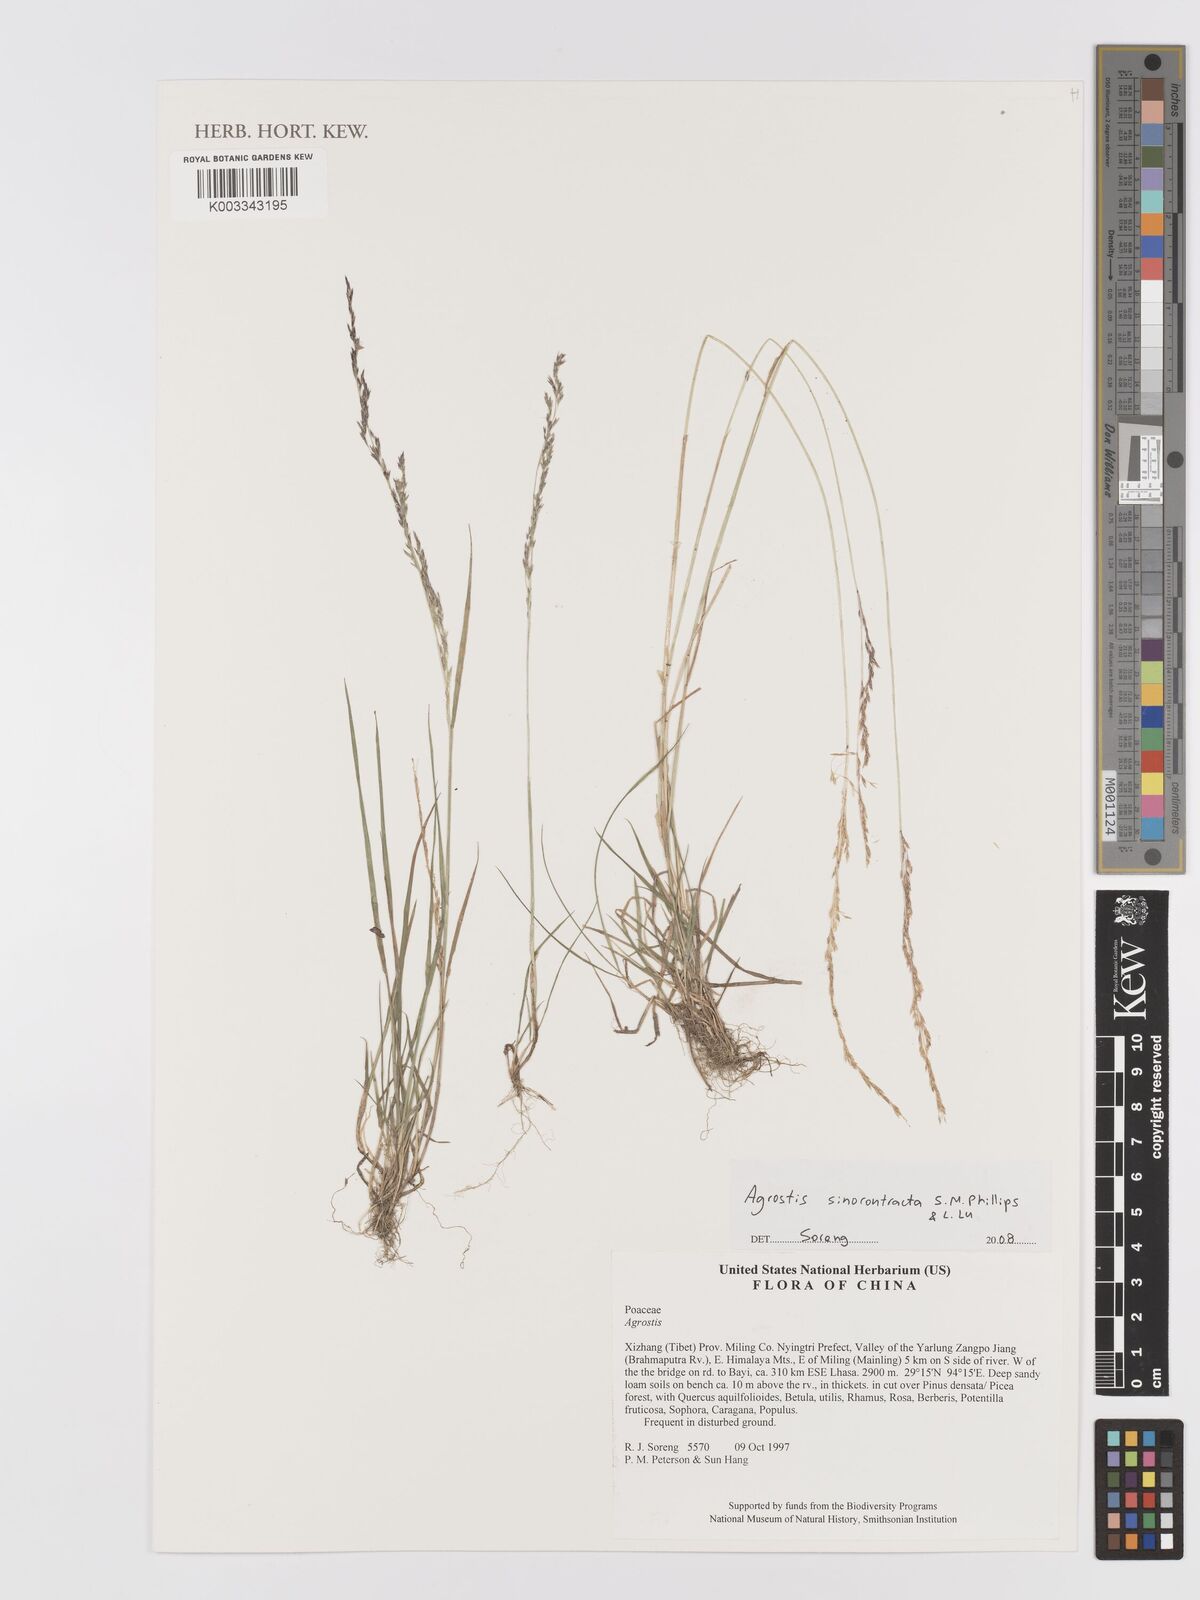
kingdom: Plantae
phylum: Tracheophyta
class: Liliopsida
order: Poales
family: Poaceae
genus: Agrostis
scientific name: Agrostis sinocontracta
